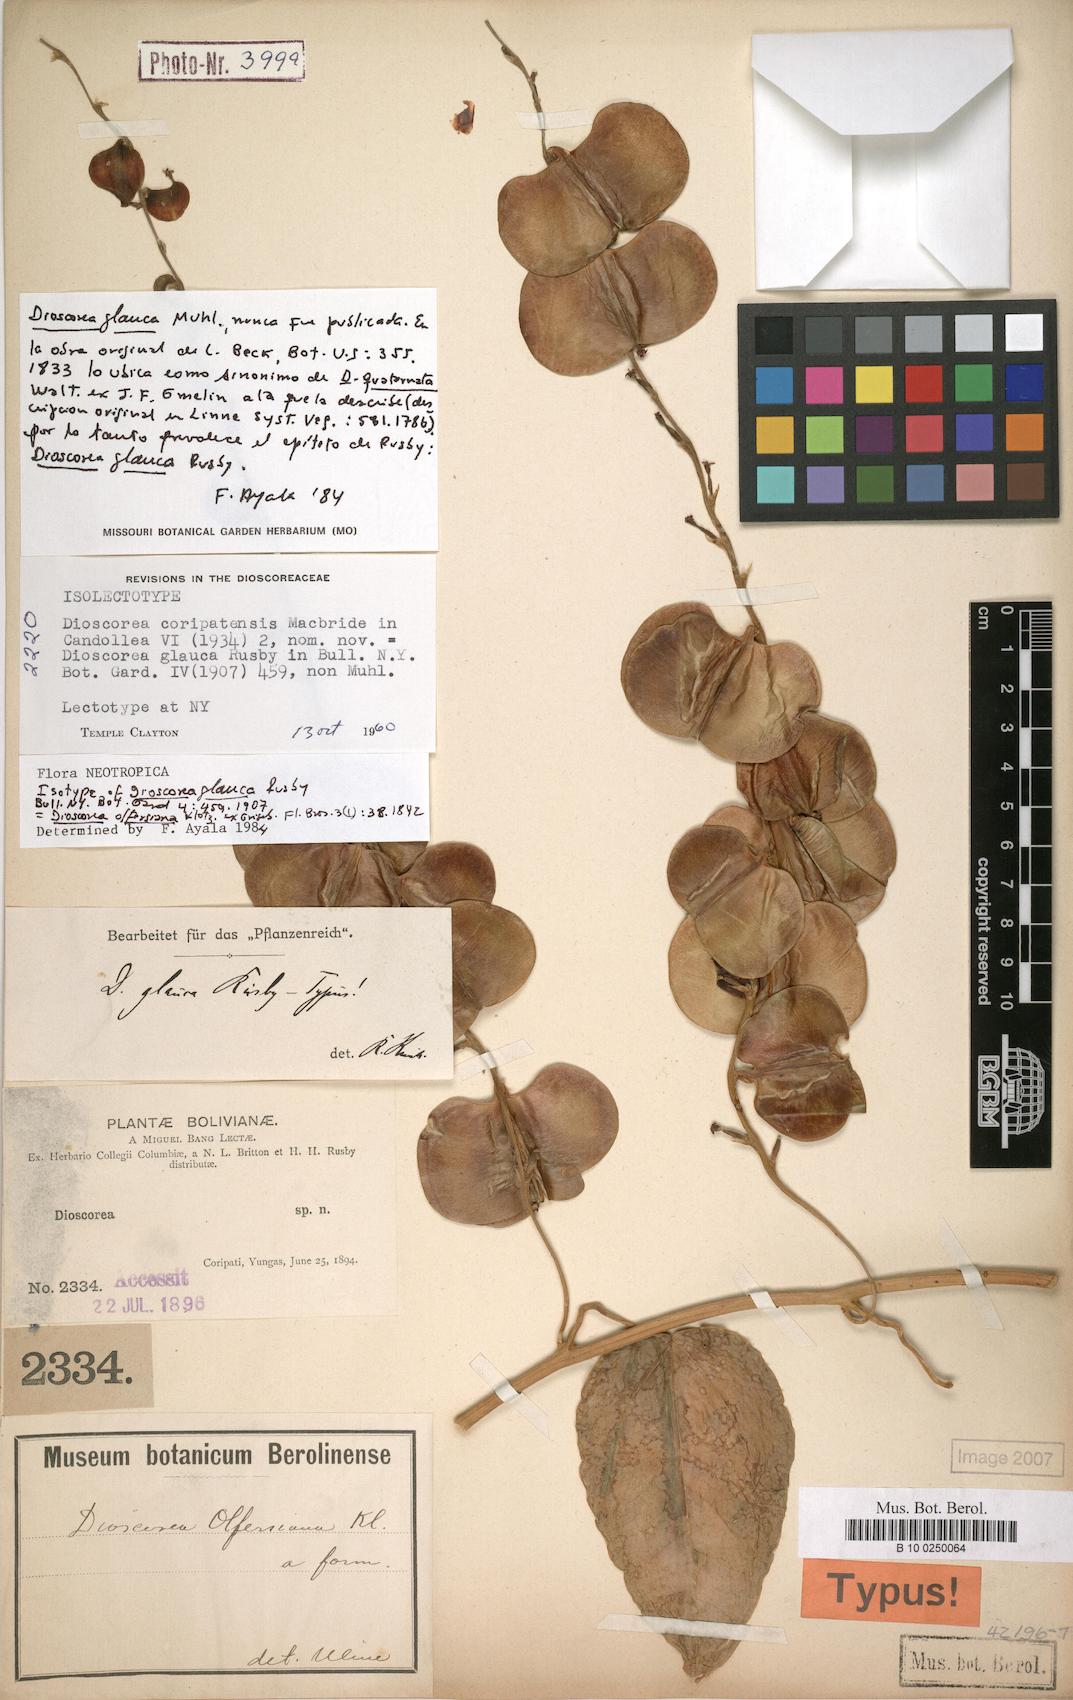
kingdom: Plantae
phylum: Tracheophyta
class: Liliopsida
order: Dioscoreales
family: Dioscoreaceae
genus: Dioscorea
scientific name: Dioscorea olfersiana
